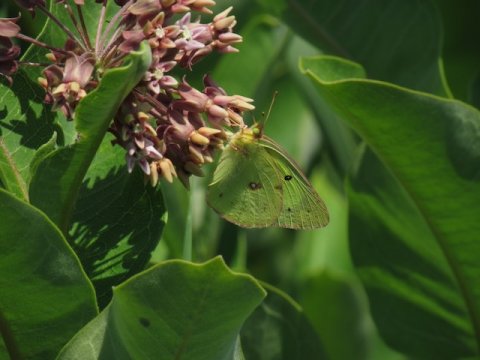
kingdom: Animalia
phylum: Arthropoda
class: Insecta
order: Lepidoptera
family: Pieridae
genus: Colias
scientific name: Colias philodice
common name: Clouded Sulphur
